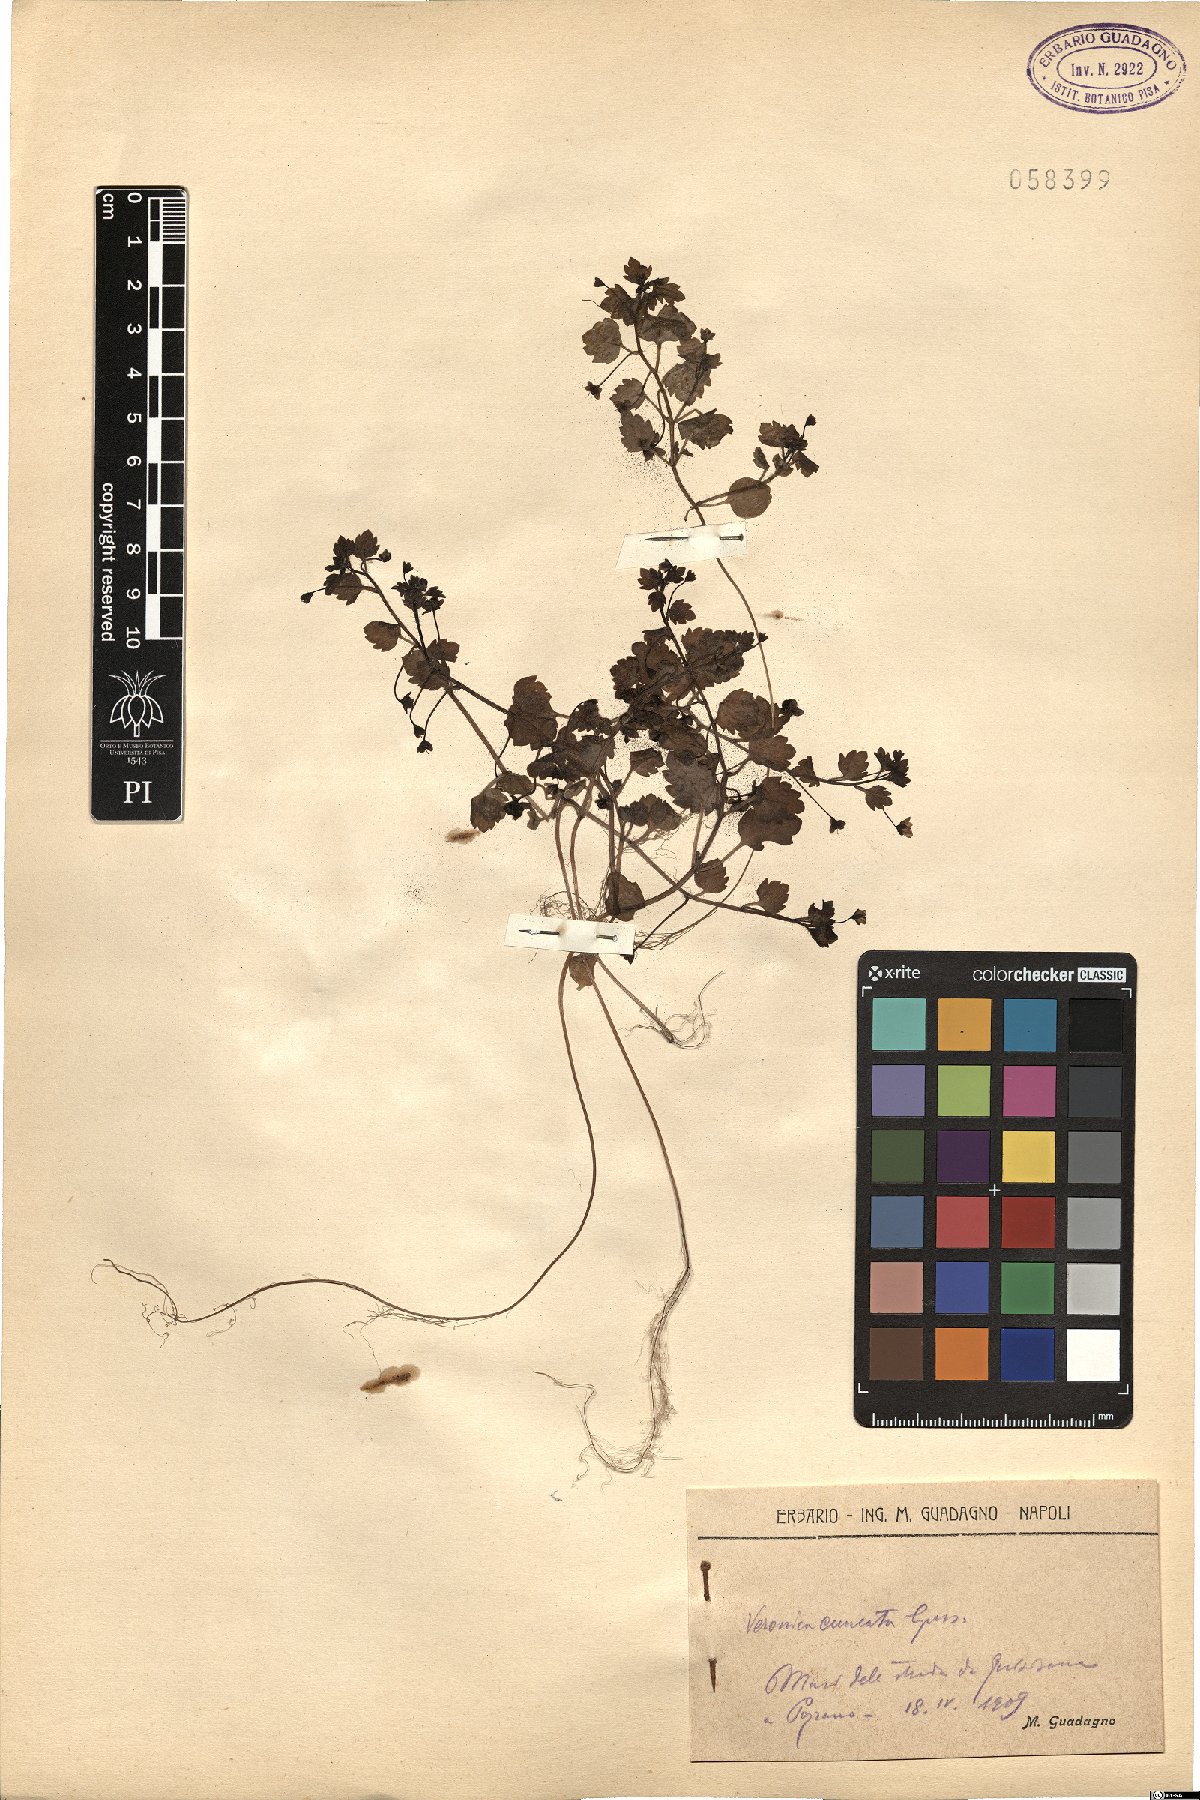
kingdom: Plantae
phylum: Tracheophyta
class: Magnoliopsida
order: Lamiales
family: Plantaginaceae
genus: Veronica
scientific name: Veronica cymbalaria
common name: Pale speedwell
